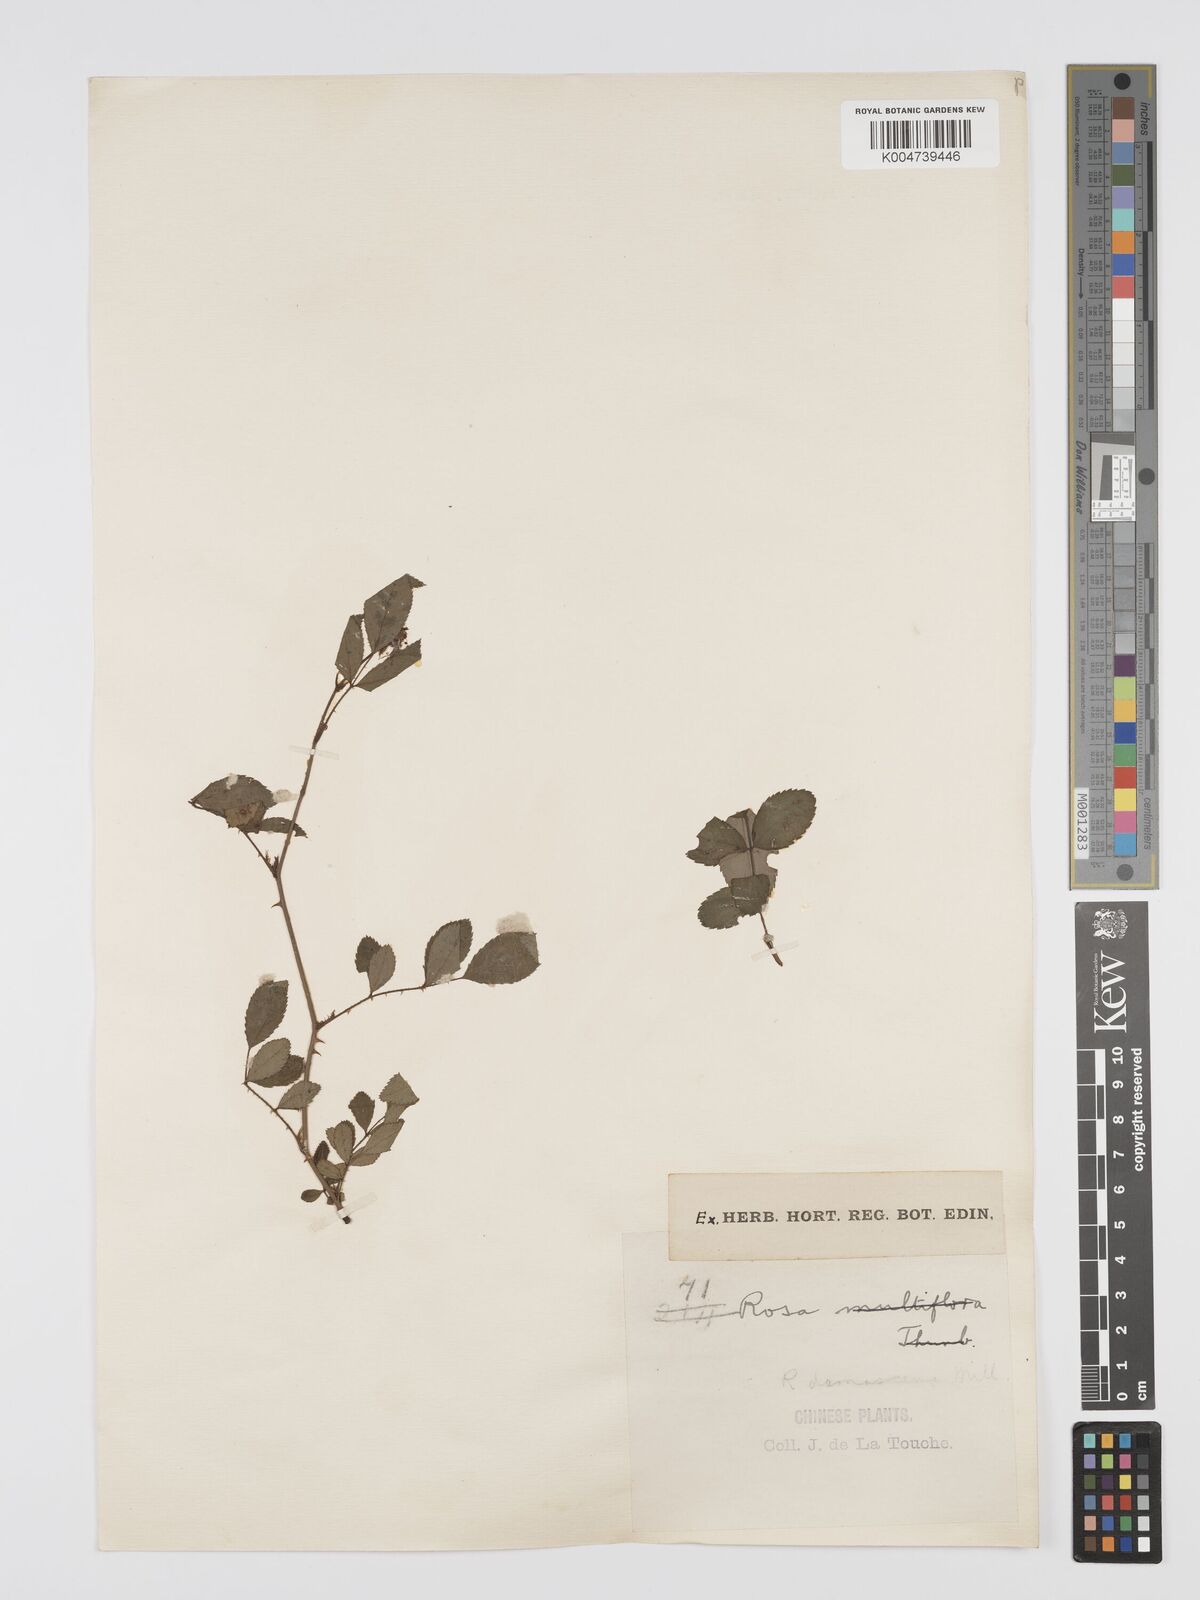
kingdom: Plantae
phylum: Tracheophyta
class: Magnoliopsida
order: Rosales
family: Rosaceae
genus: Rosa
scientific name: Rosa
